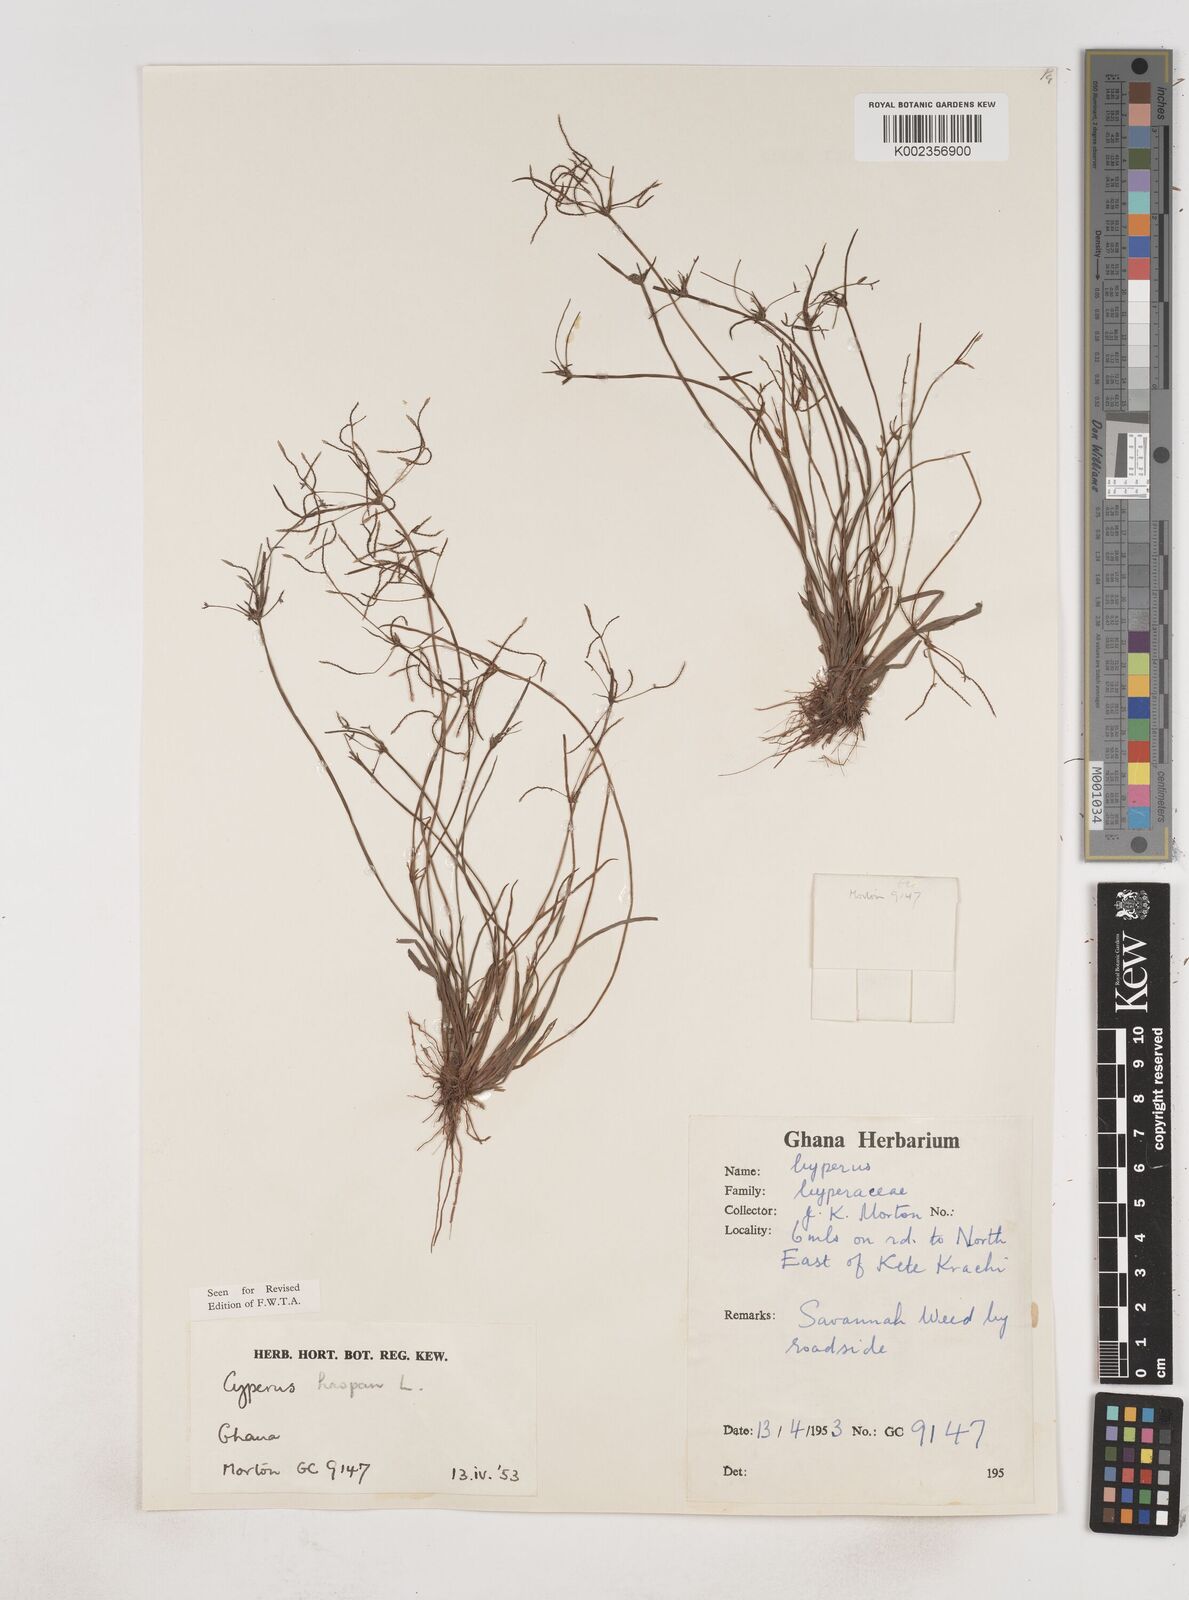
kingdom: Plantae
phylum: Tracheophyta
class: Liliopsida
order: Poales
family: Cyperaceae
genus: Cyperus
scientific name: Cyperus haspan
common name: Haspan flatsedge
